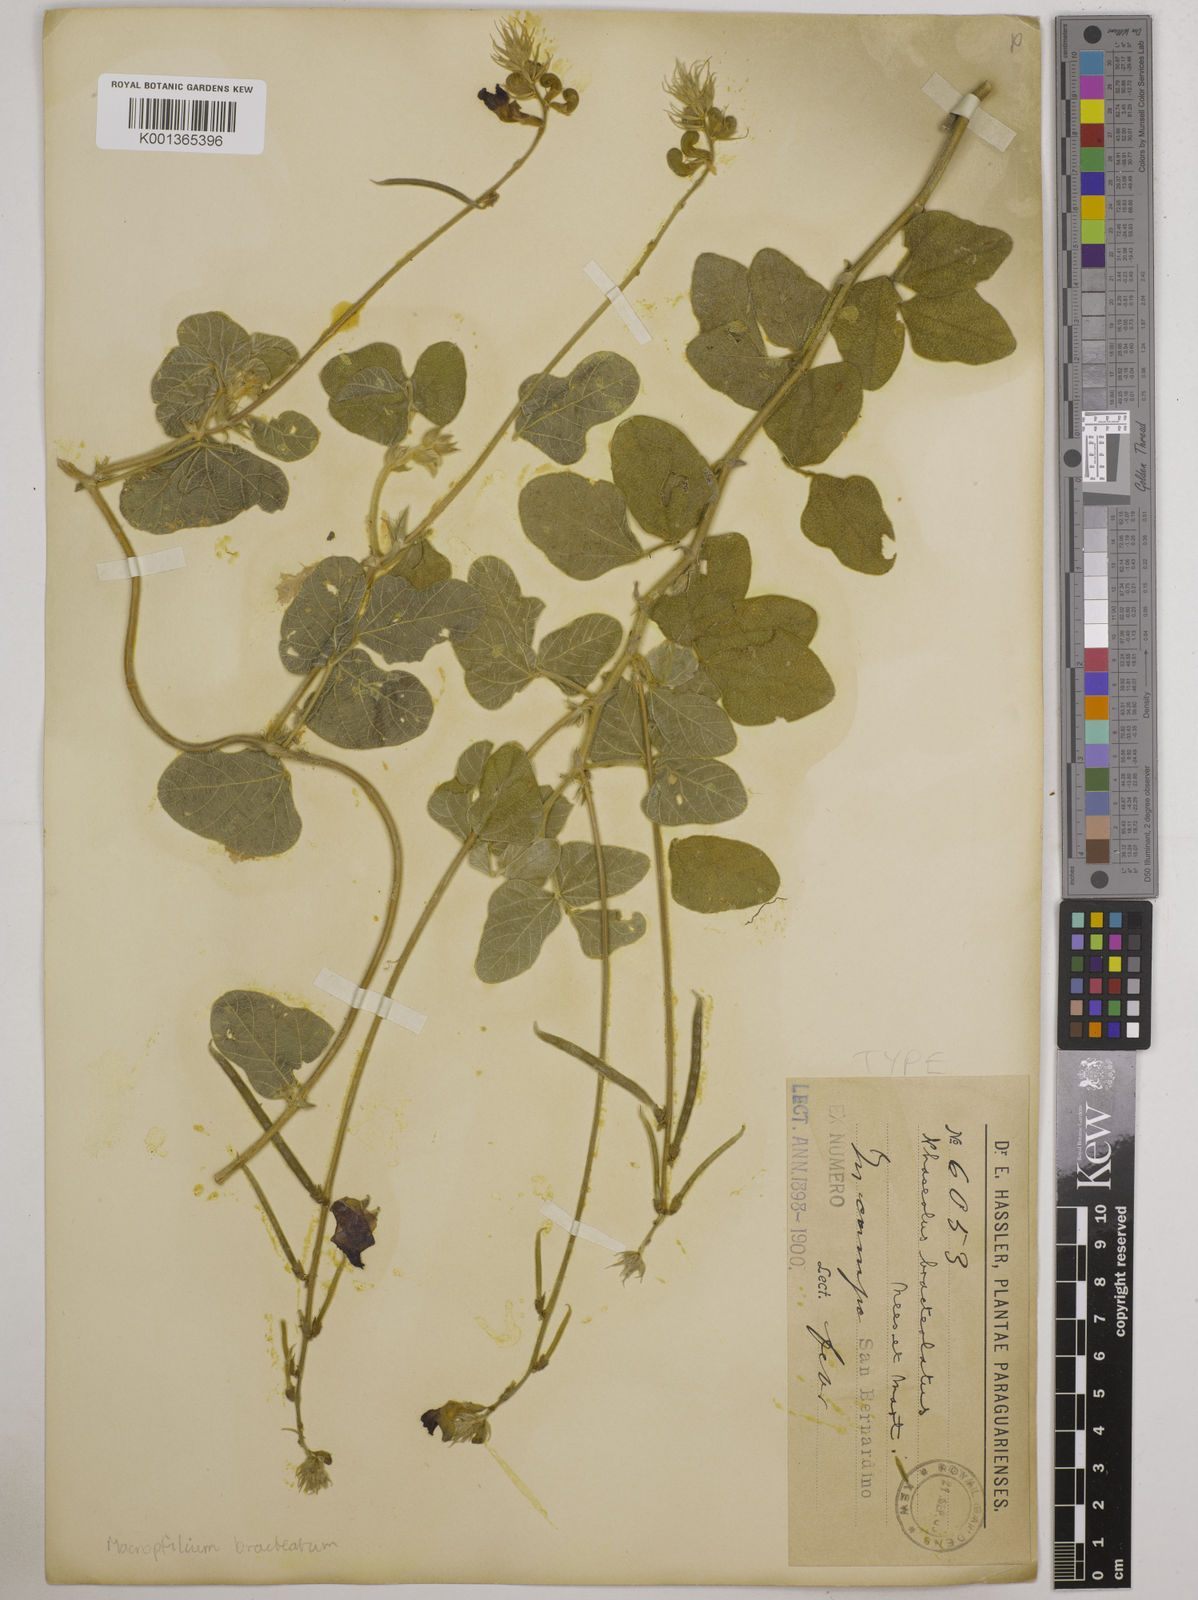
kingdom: Plantae
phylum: Tracheophyta
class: Magnoliopsida
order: Fabales
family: Fabaceae
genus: Macroptilium
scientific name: Macroptilium bracteatum
